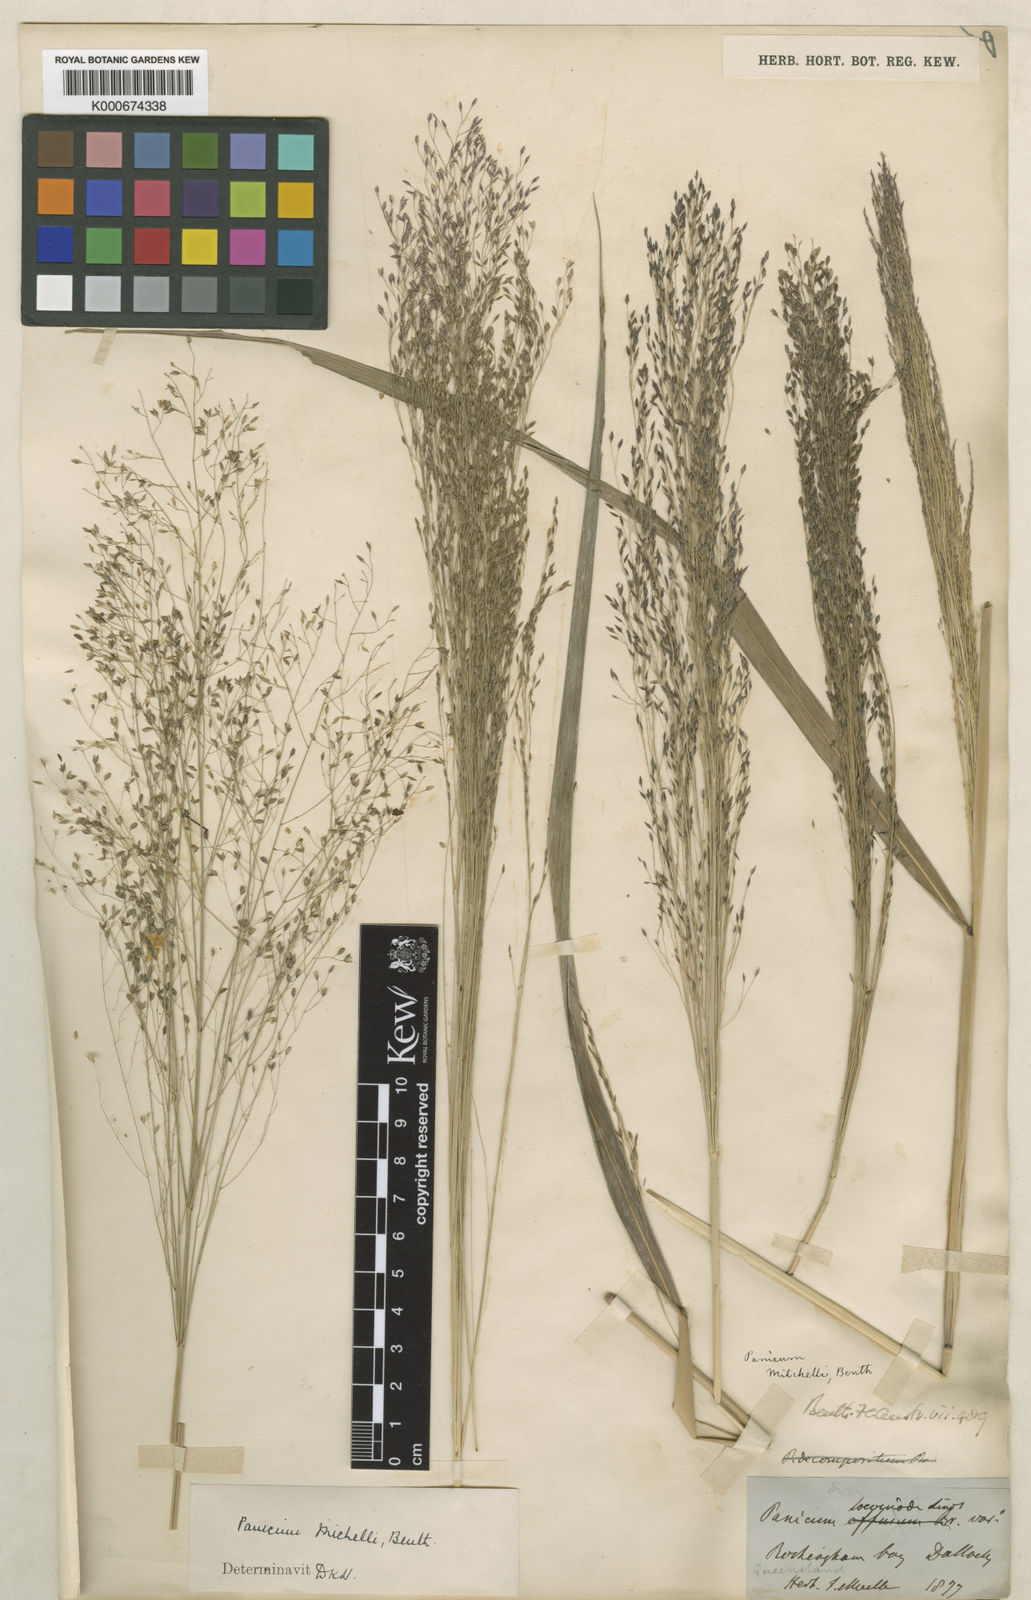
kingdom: Plantae
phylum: Tracheophyta
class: Liliopsida
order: Poales
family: Poaceae
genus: Panicum
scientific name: Panicum mitchellii
